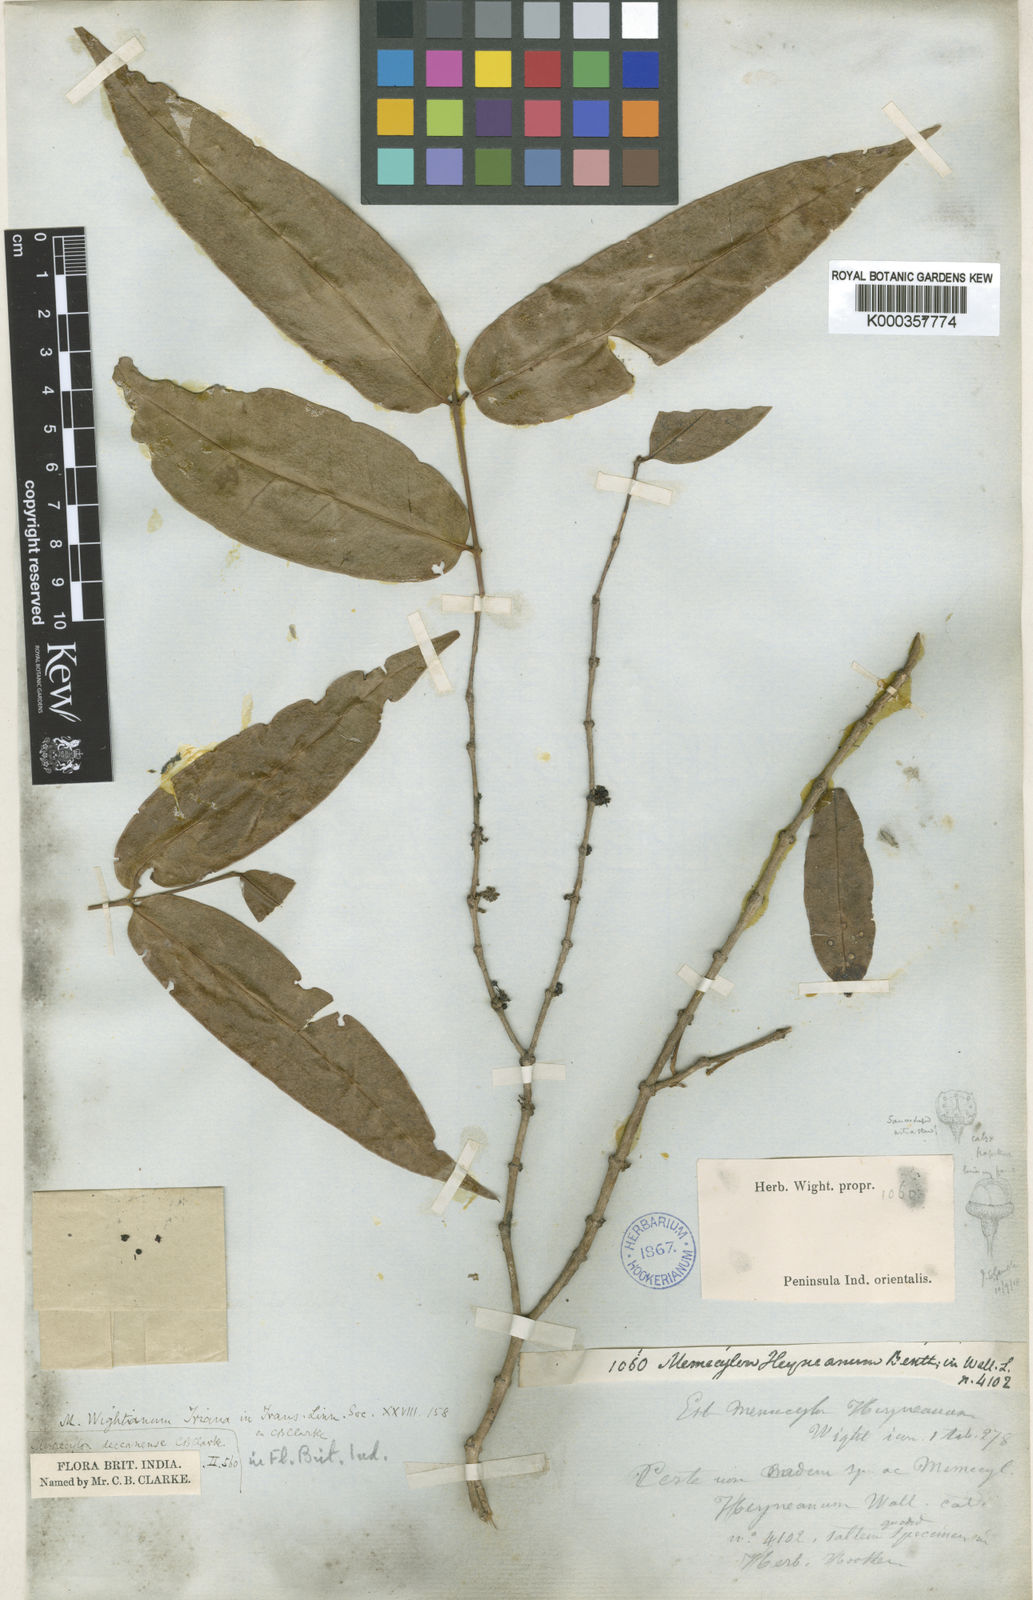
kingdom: Plantae
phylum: Tracheophyta
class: Magnoliopsida
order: Myrtales
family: Melastomataceae
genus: Memecylon
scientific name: Memecylon heyneanum
